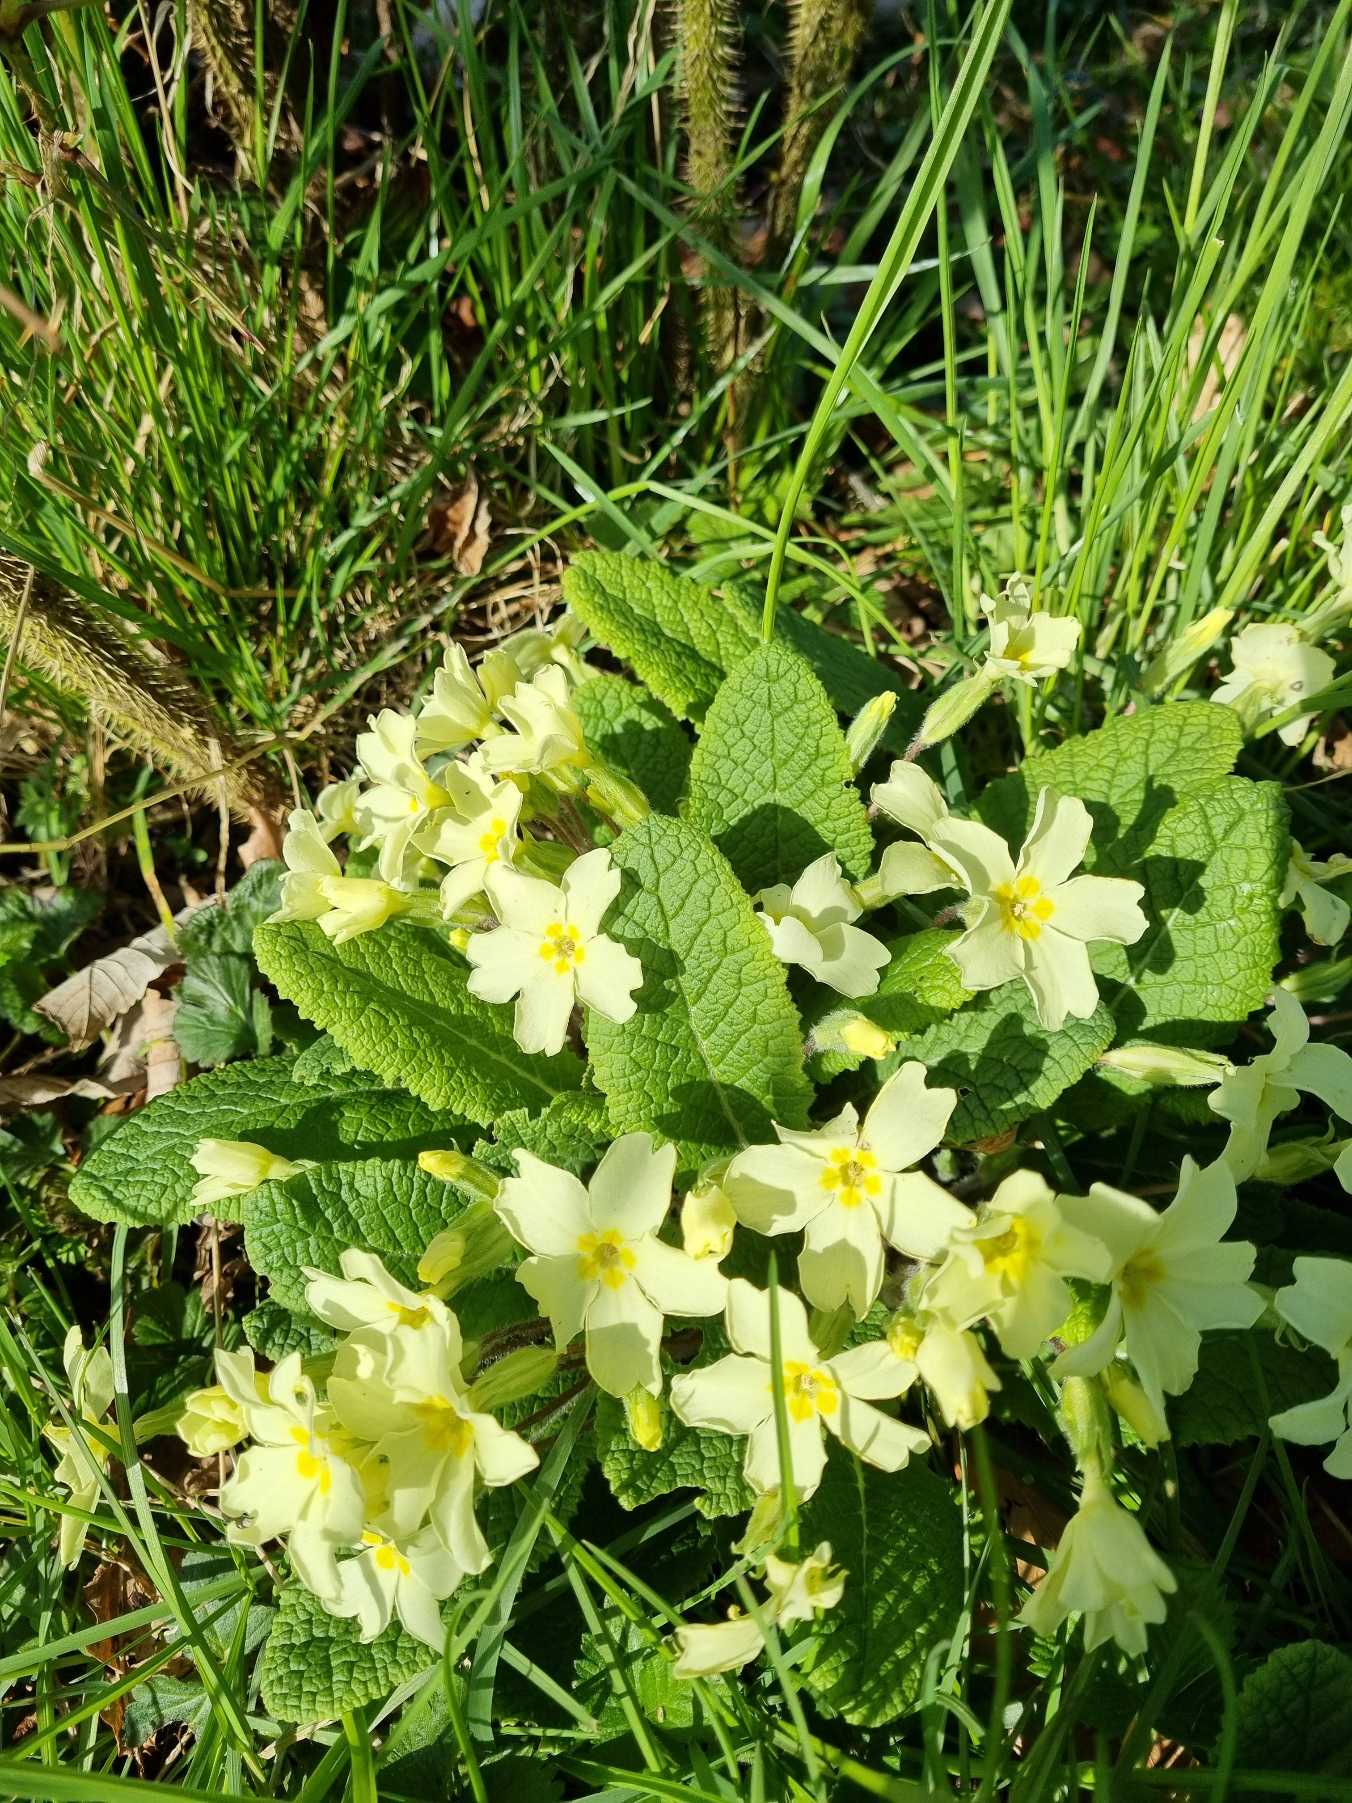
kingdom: Plantae
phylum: Tracheophyta
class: Magnoliopsida
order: Ericales
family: Primulaceae
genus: Primula
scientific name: Primula vulgaris
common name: Storblomstret kodriver
